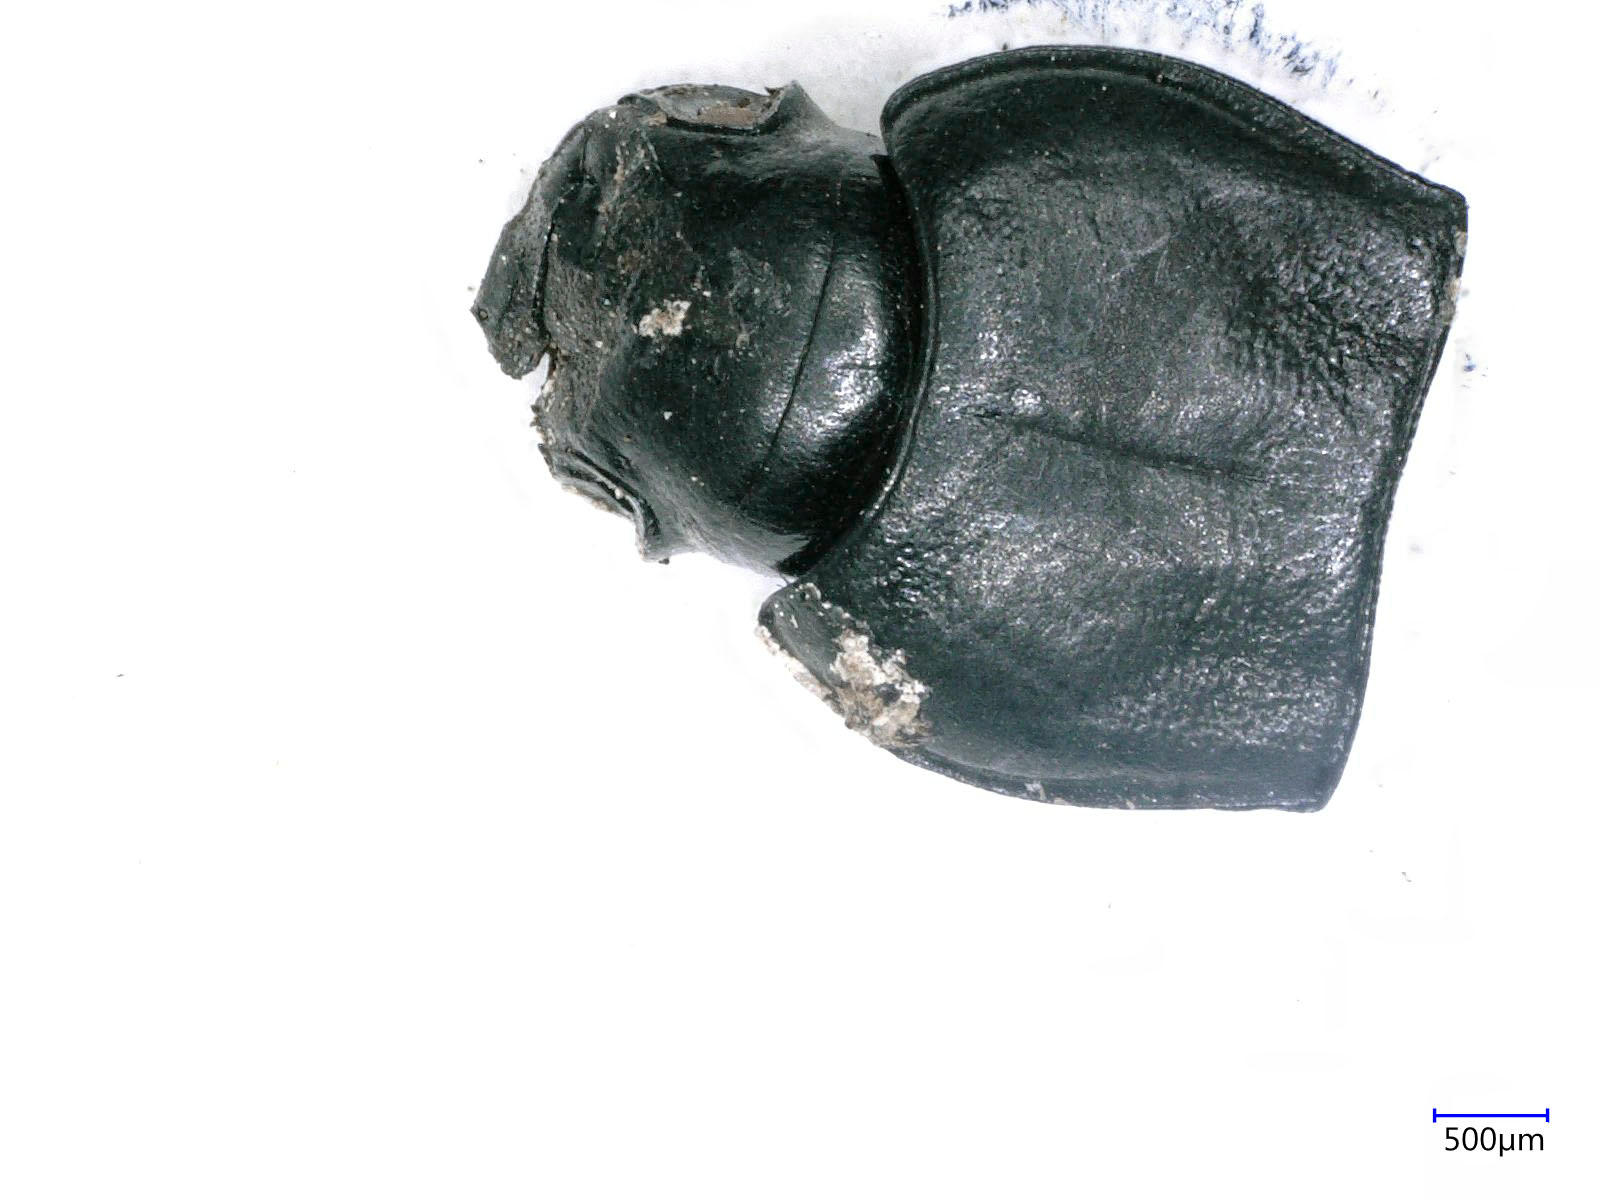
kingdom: Animalia
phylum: Arthropoda
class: Insecta
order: Coleoptera
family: Carabidae
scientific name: Carabidae
